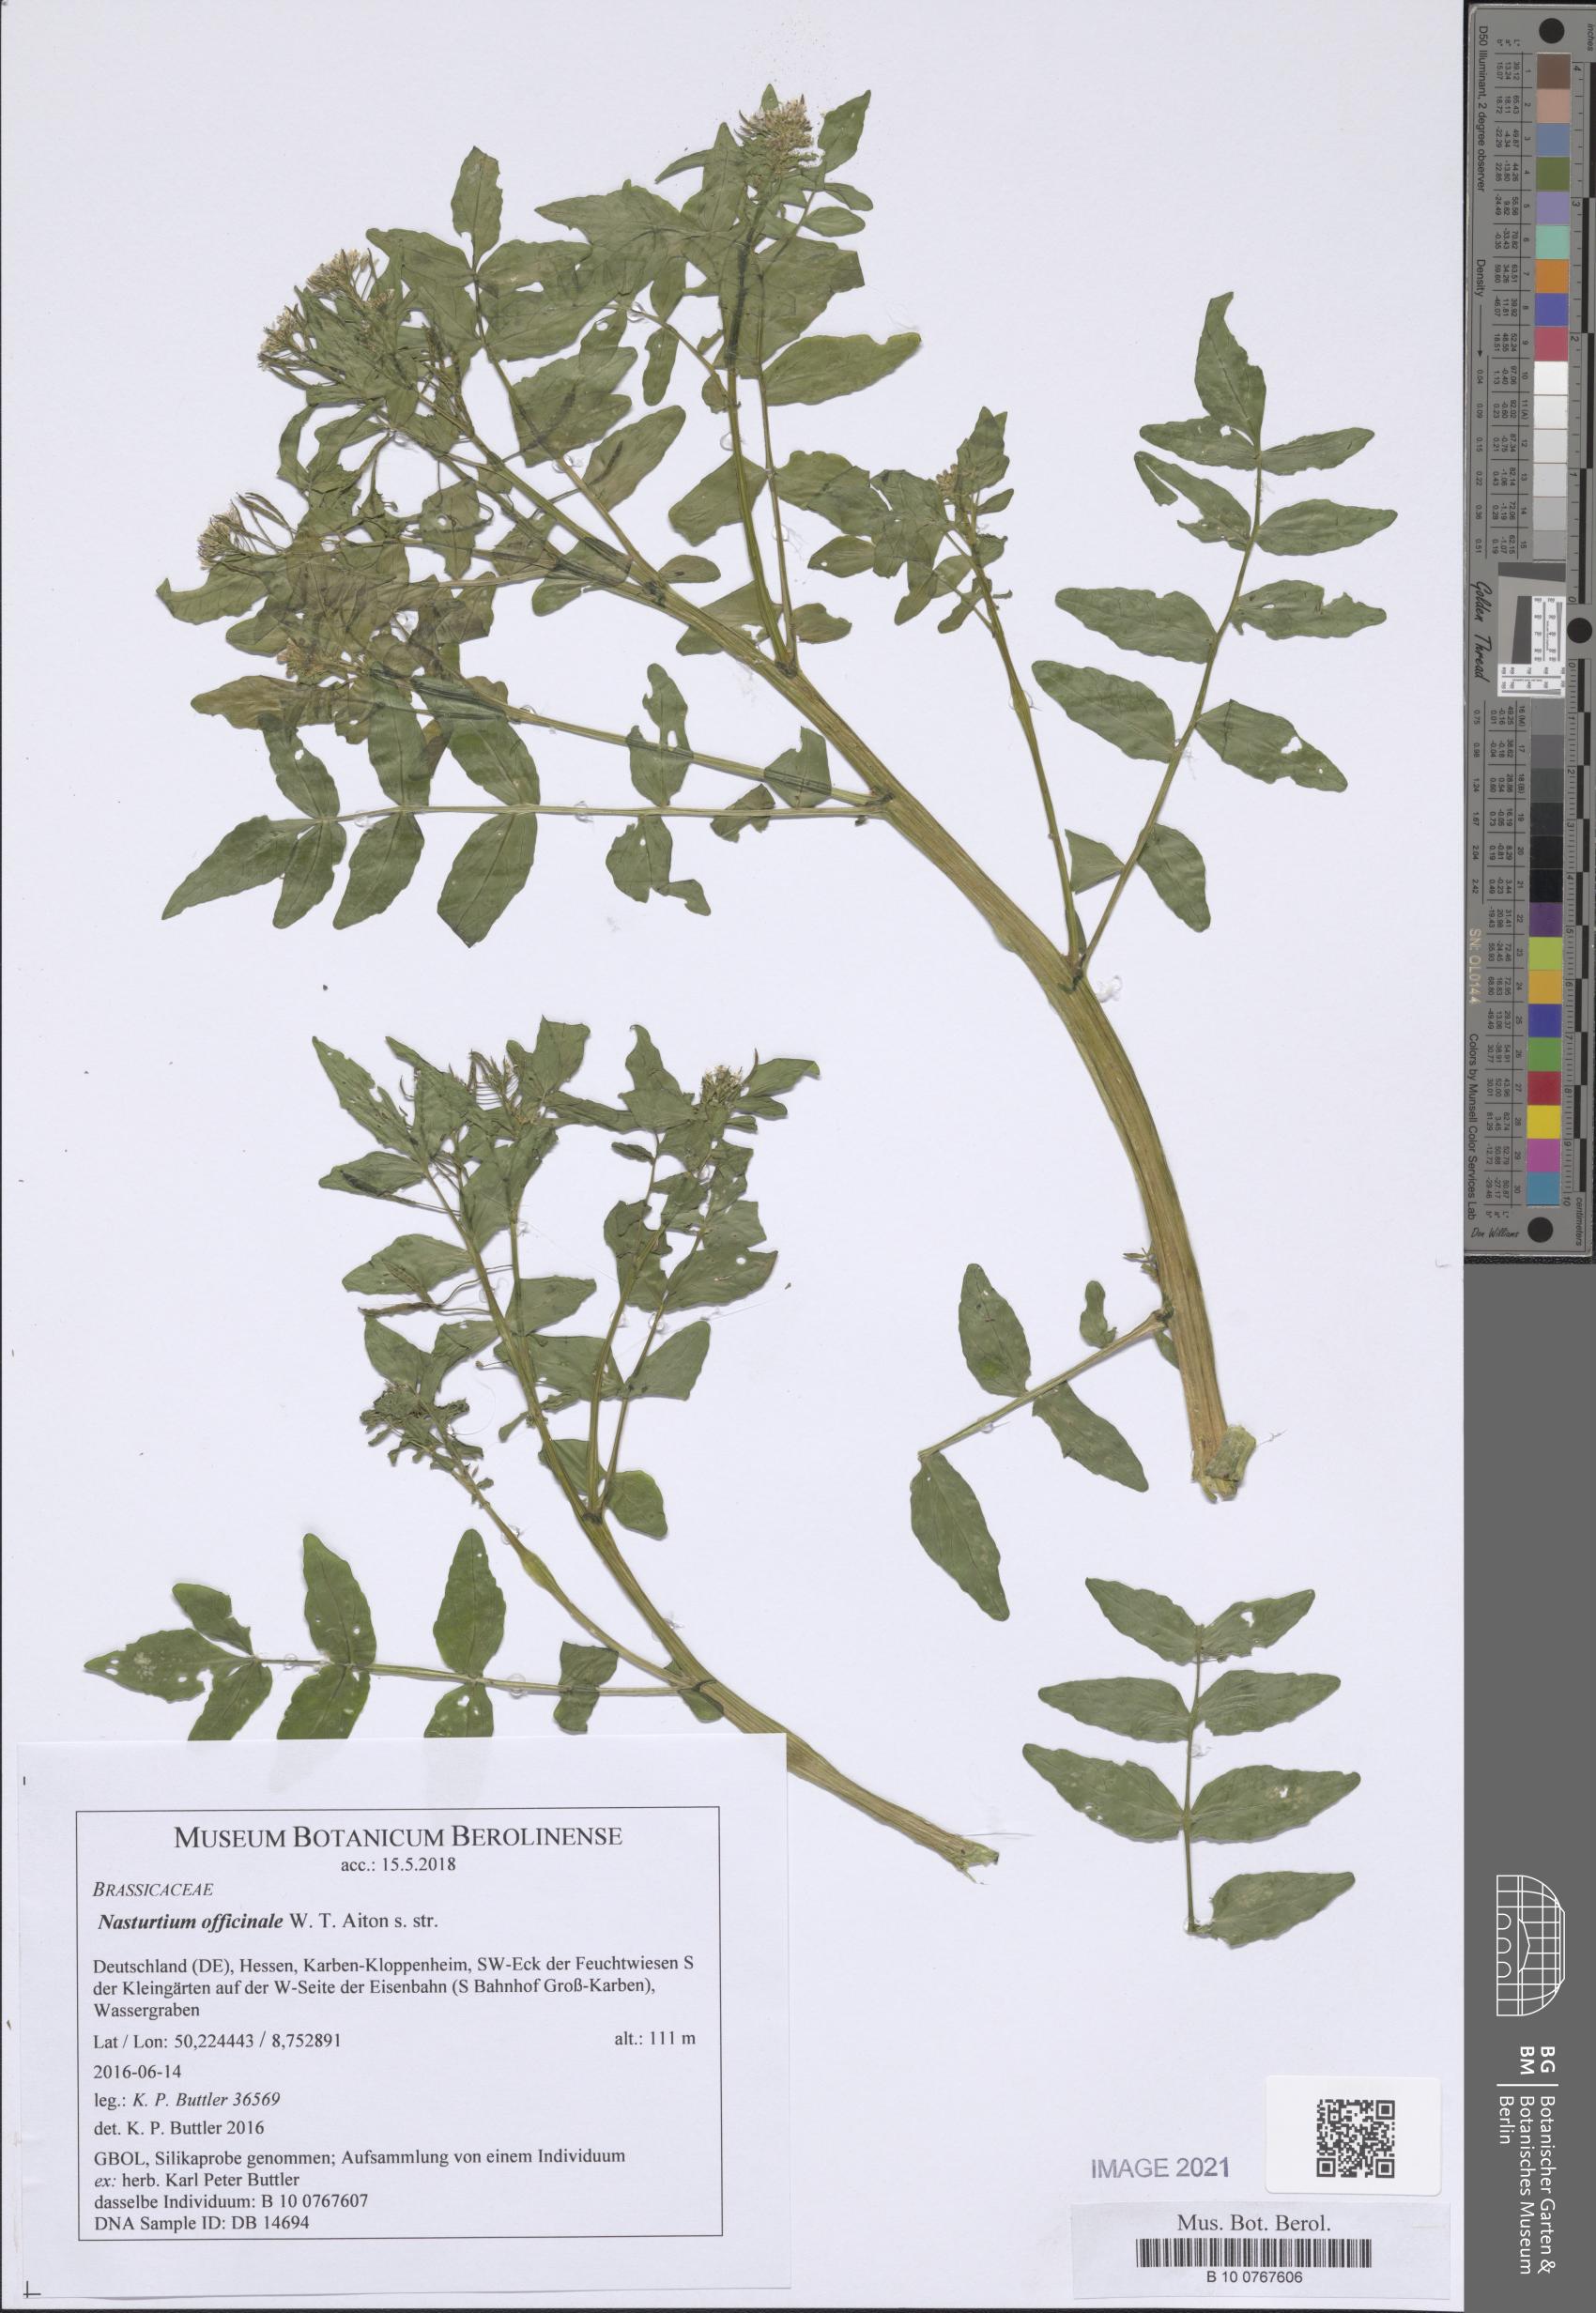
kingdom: Plantae
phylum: Tracheophyta
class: Magnoliopsida
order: Brassicales
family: Brassicaceae
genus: Nasturtium
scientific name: Nasturtium officinale
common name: Watercress
